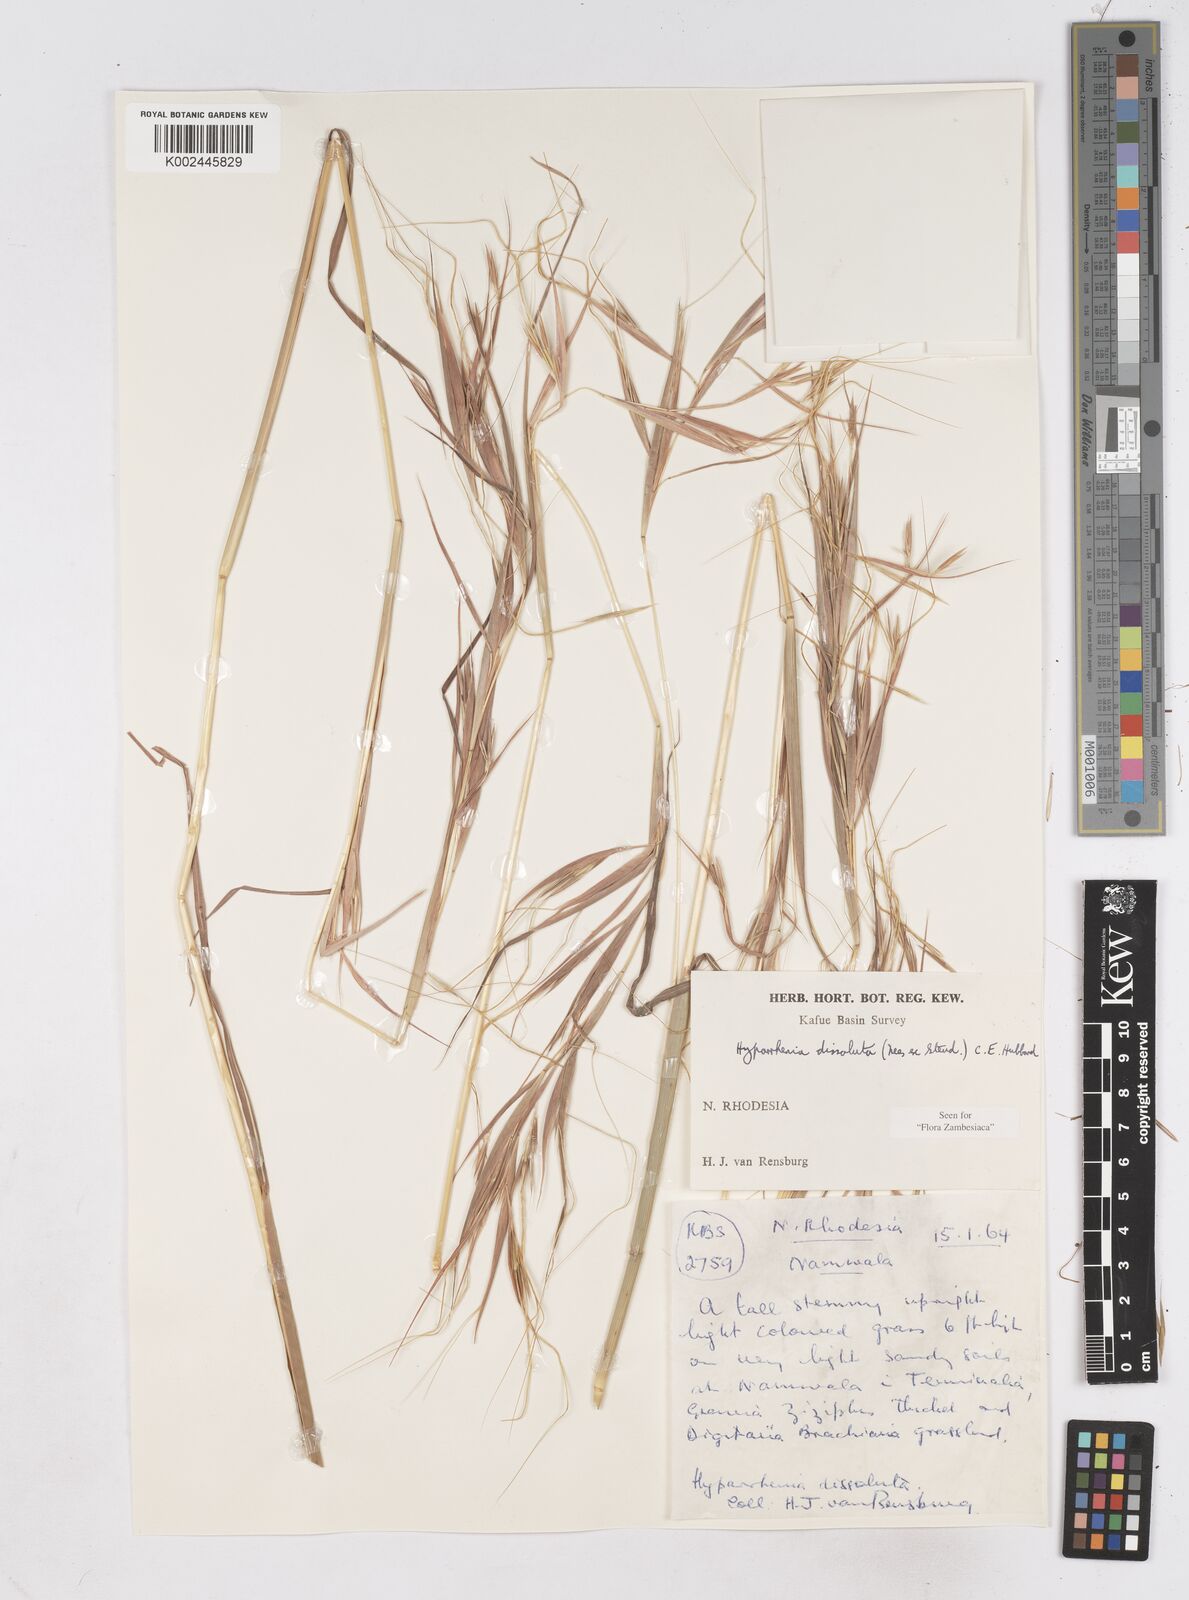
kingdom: Plantae
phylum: Tracheophyta
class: Liliopsida
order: Poales
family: Poaceae
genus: Hyperthelia
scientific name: Hyperthelia dissoluta
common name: Yellow thatching grass
